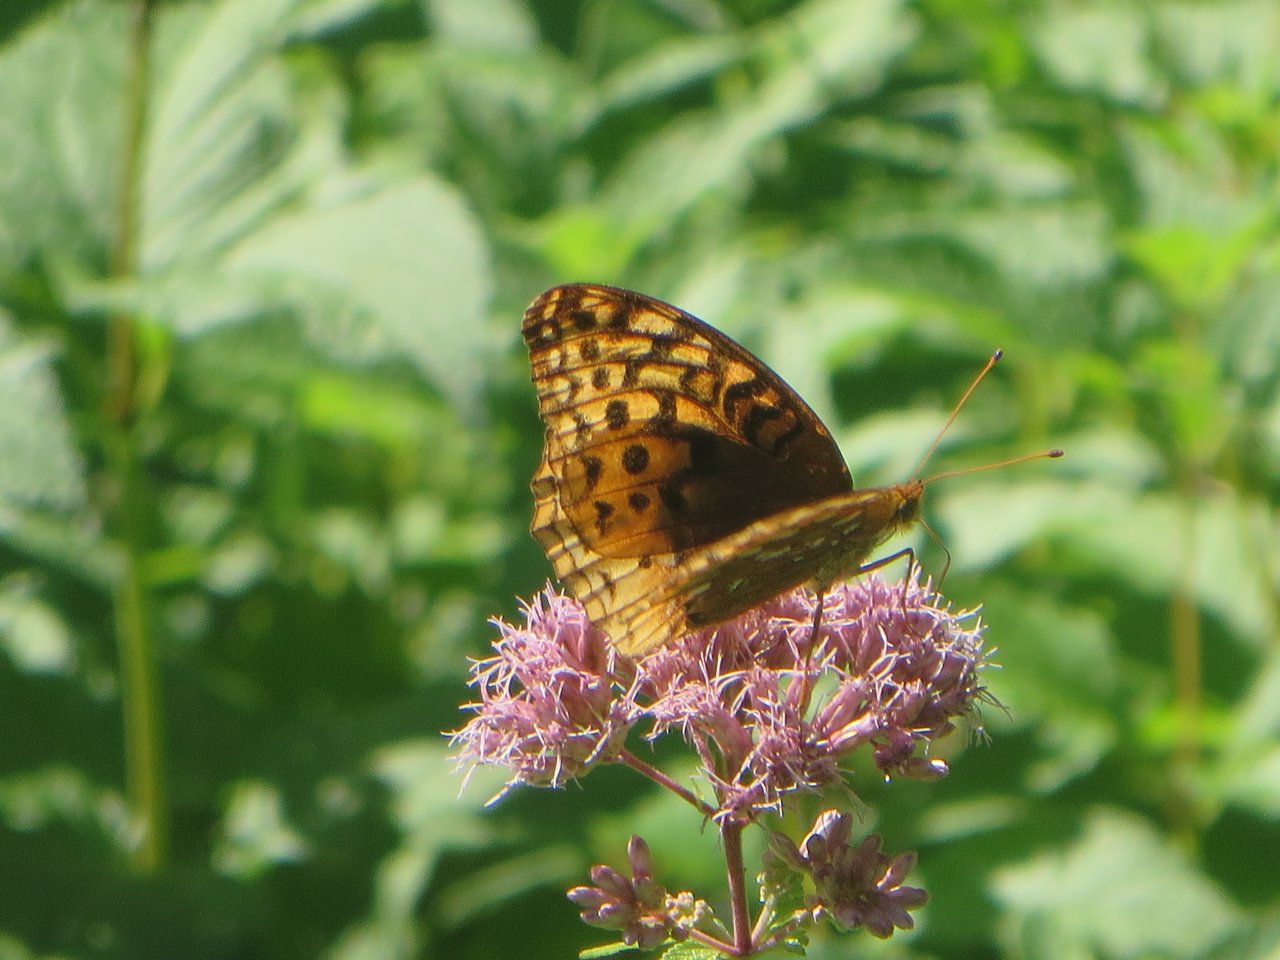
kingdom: Animalia
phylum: Arthropoda
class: Insecta
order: Lepidoptera
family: Nymphalidae
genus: Speyeria
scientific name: Speyeria cybele
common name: Great Spangled Fritillary
